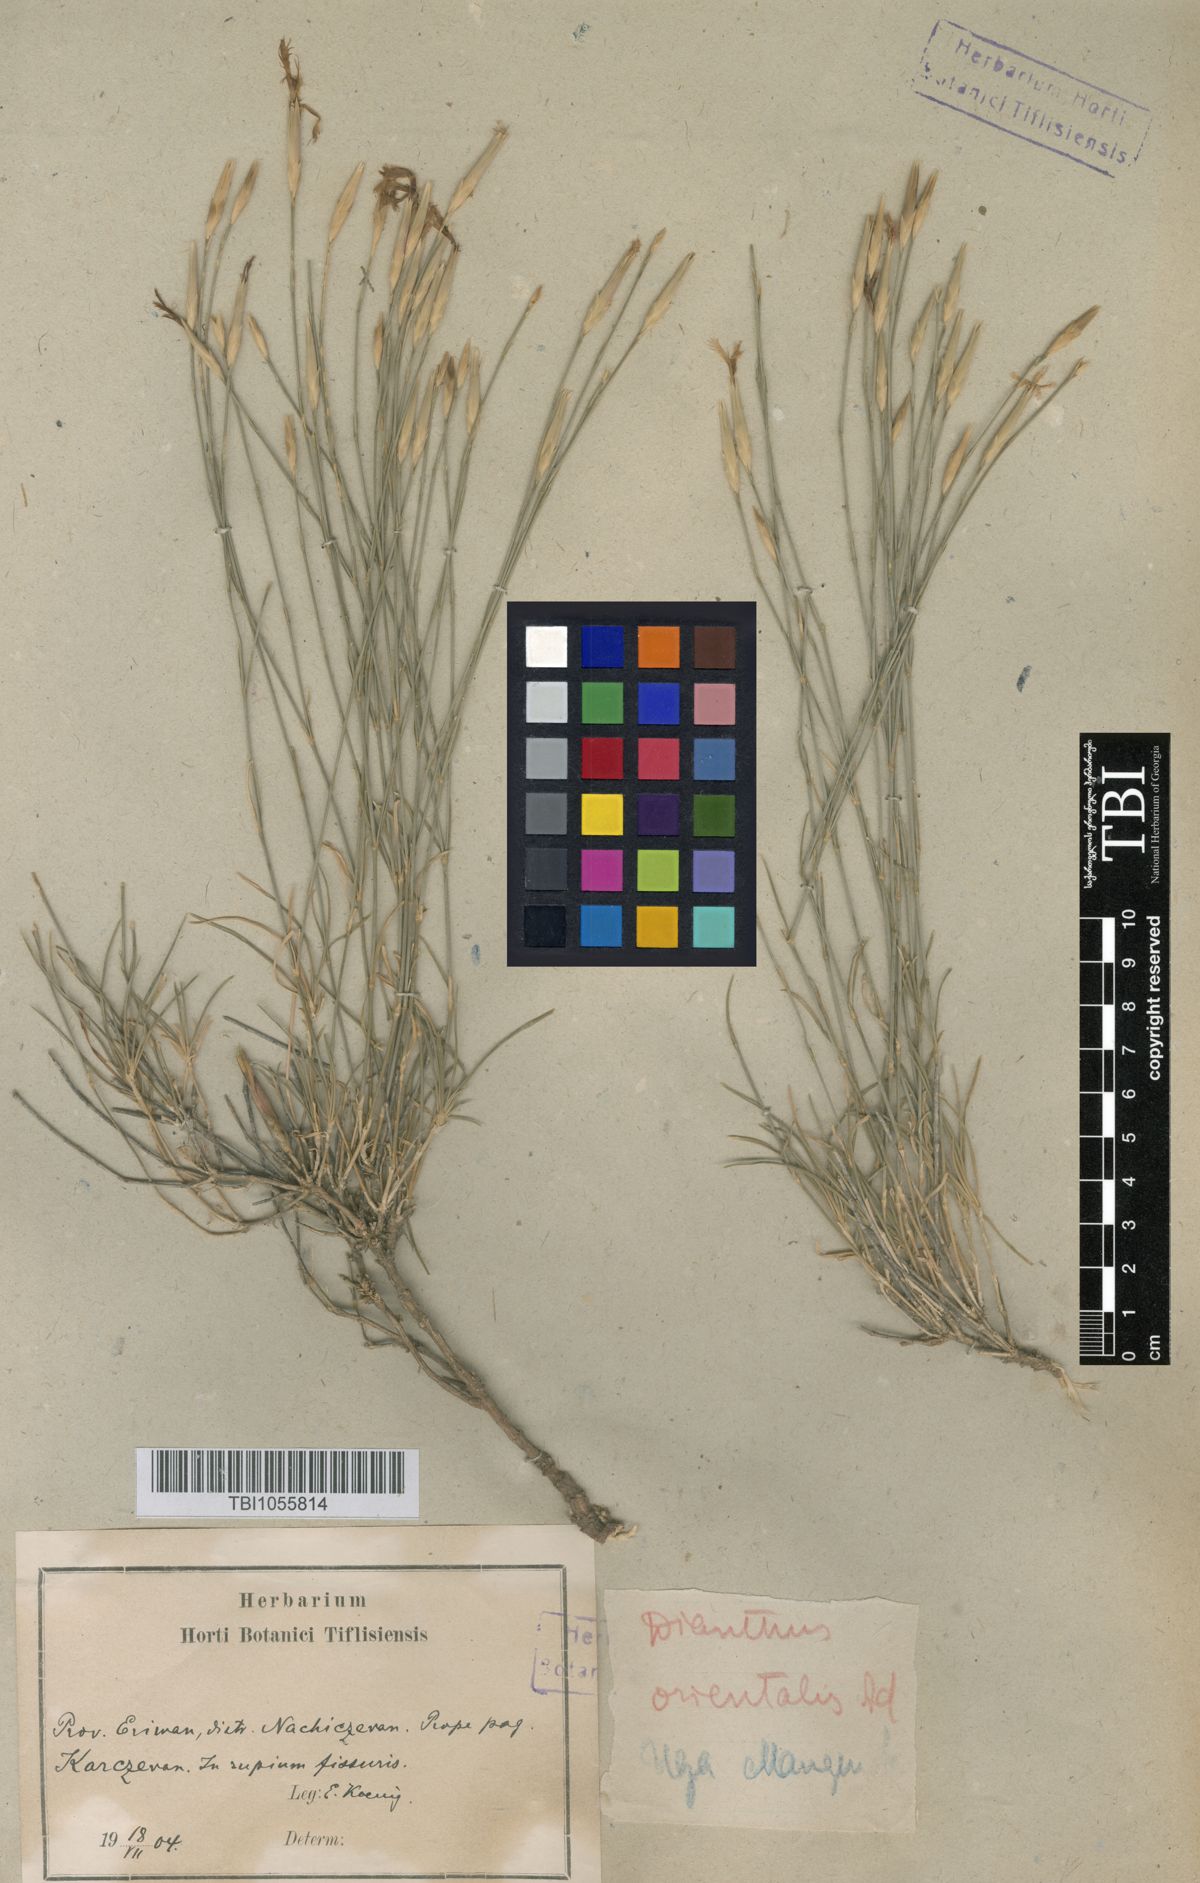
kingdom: Plantae
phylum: Tracheophyta
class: Magnoliopsida
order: Caryophyllales
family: Caryophyllaceae
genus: Dianthus
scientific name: Dianthus orientalis
